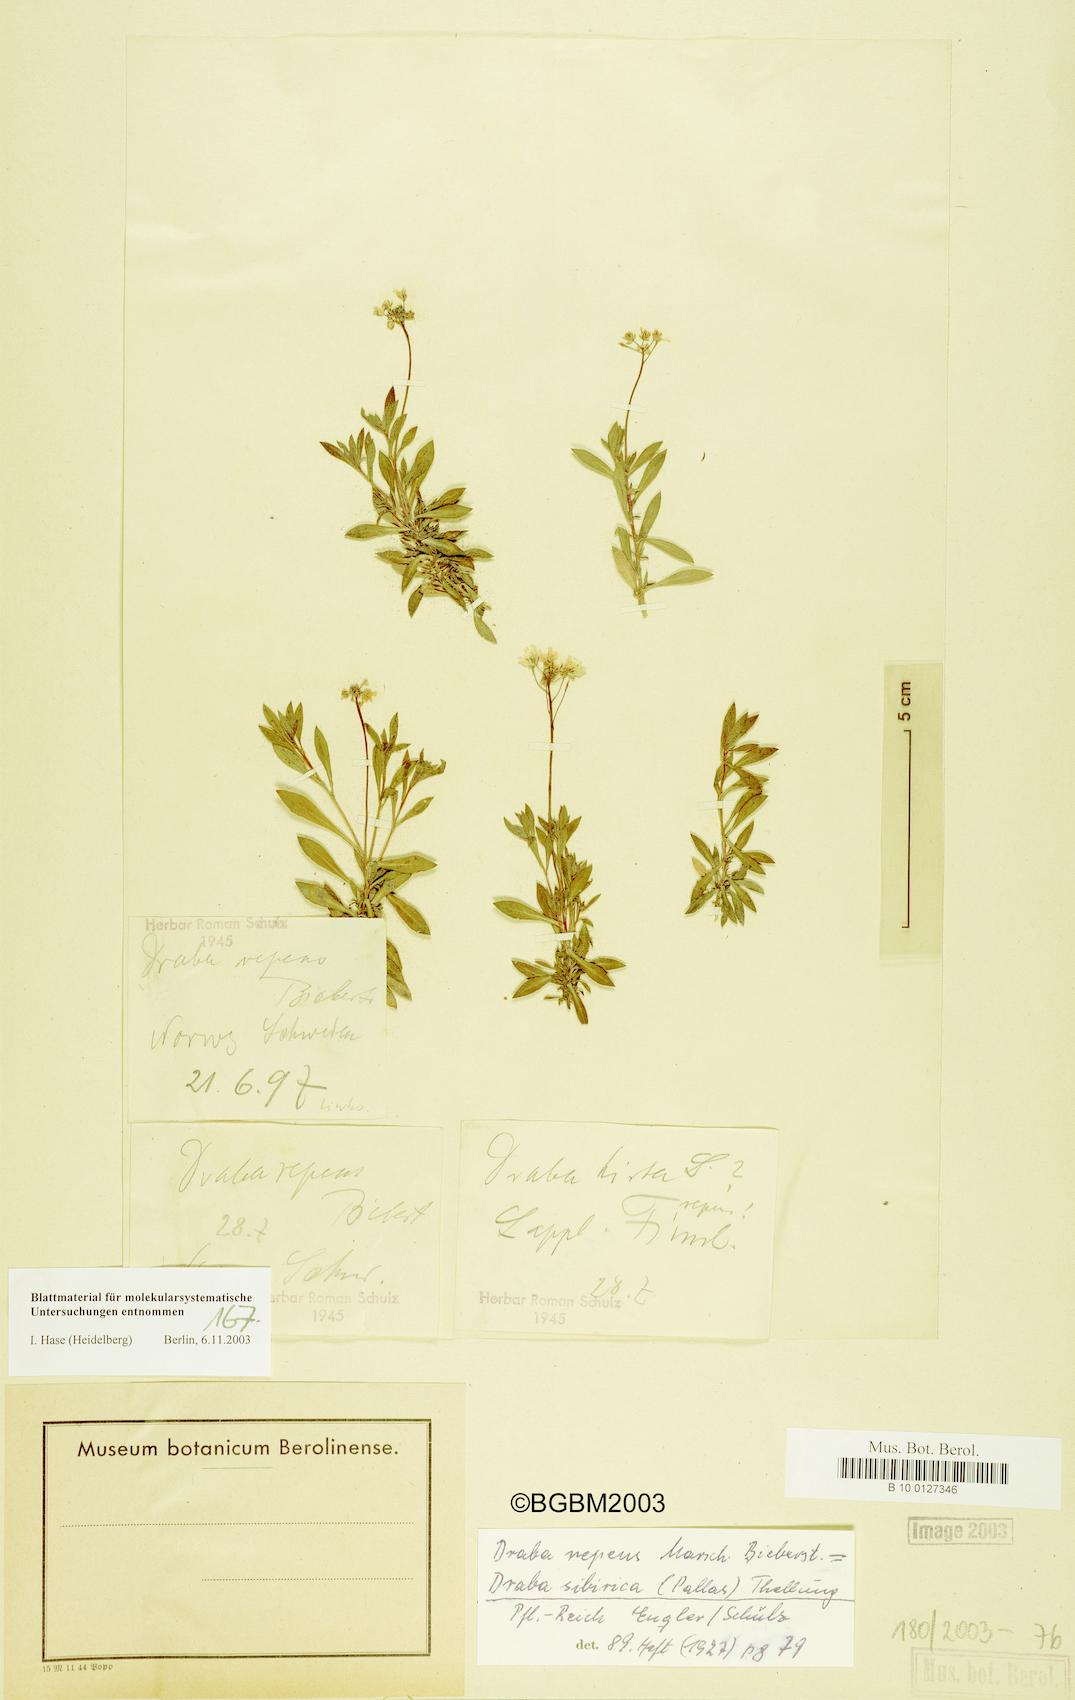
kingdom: Plantae
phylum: Tracheophyta
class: Magnoliopsida
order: Brassicales
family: Brassicaceae
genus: Draba
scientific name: Draba sibirica
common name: Siberian draba
